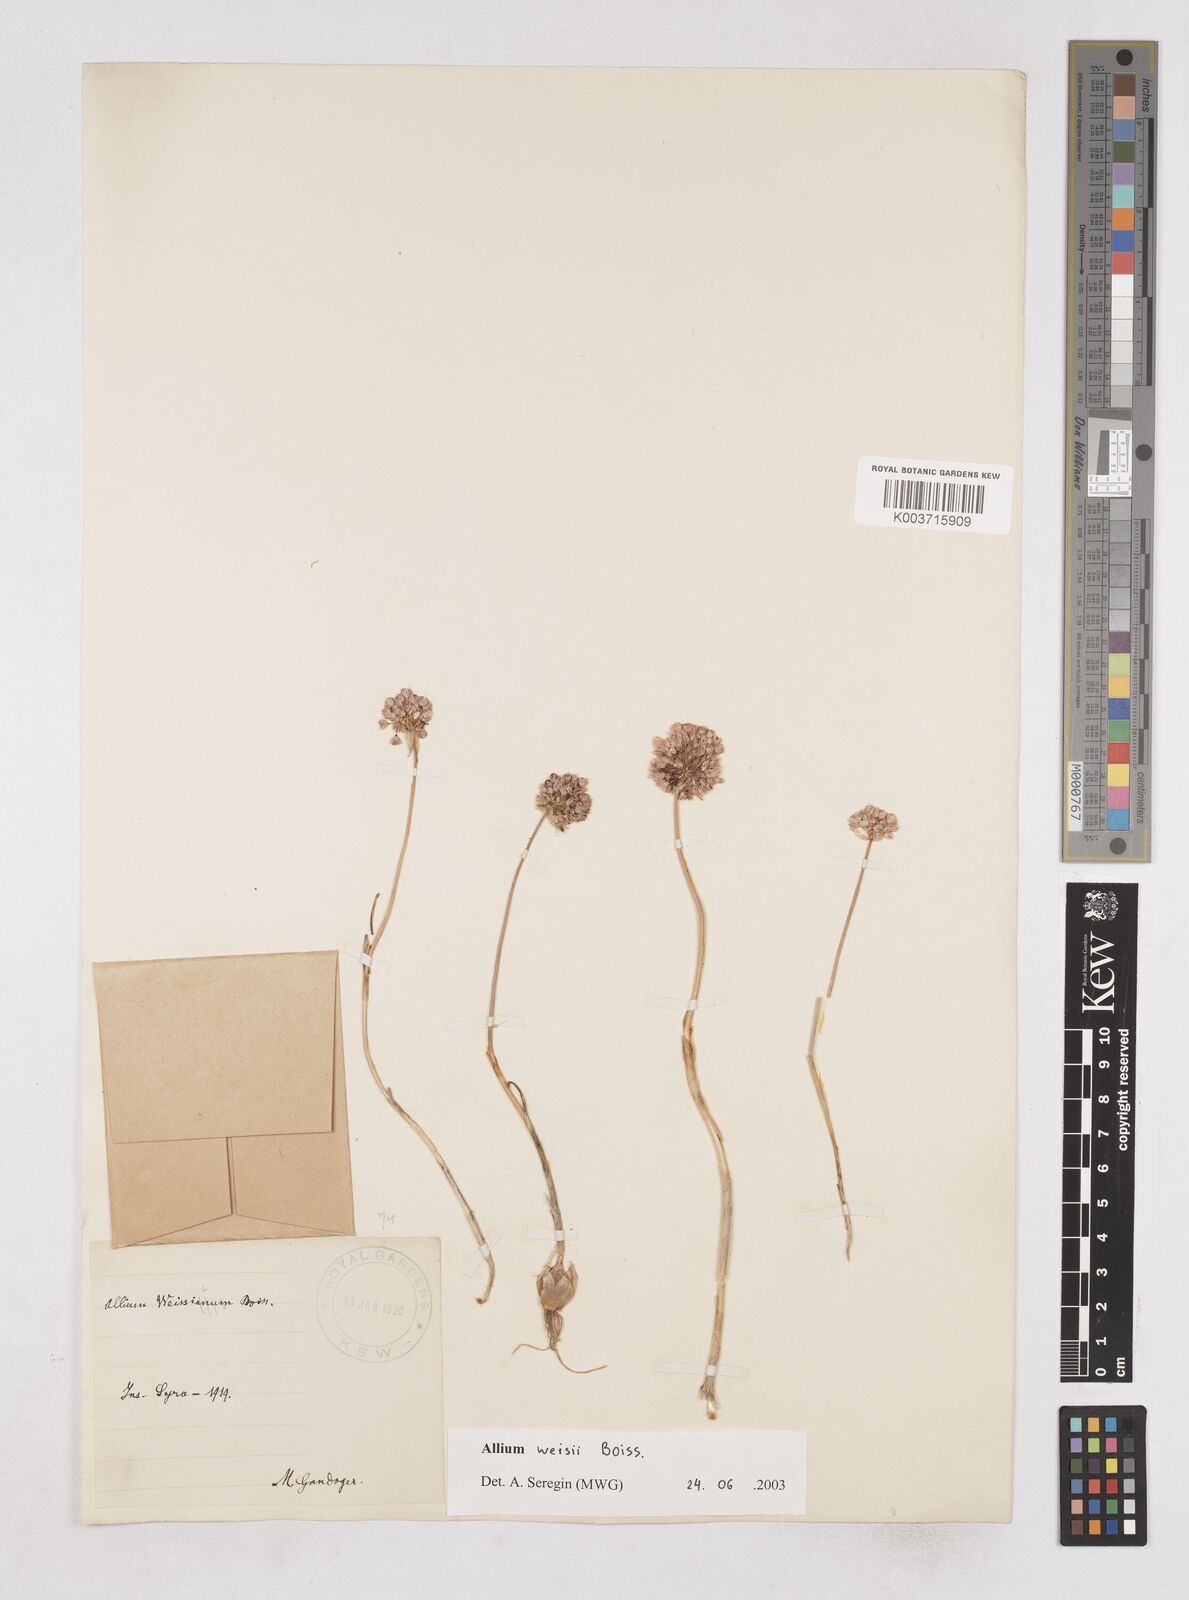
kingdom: Plantae
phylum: Tracheophyta
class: Liliopsida
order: Asparagales
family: Amaryllidaceae
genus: Allium
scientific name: Allium staticiforme
